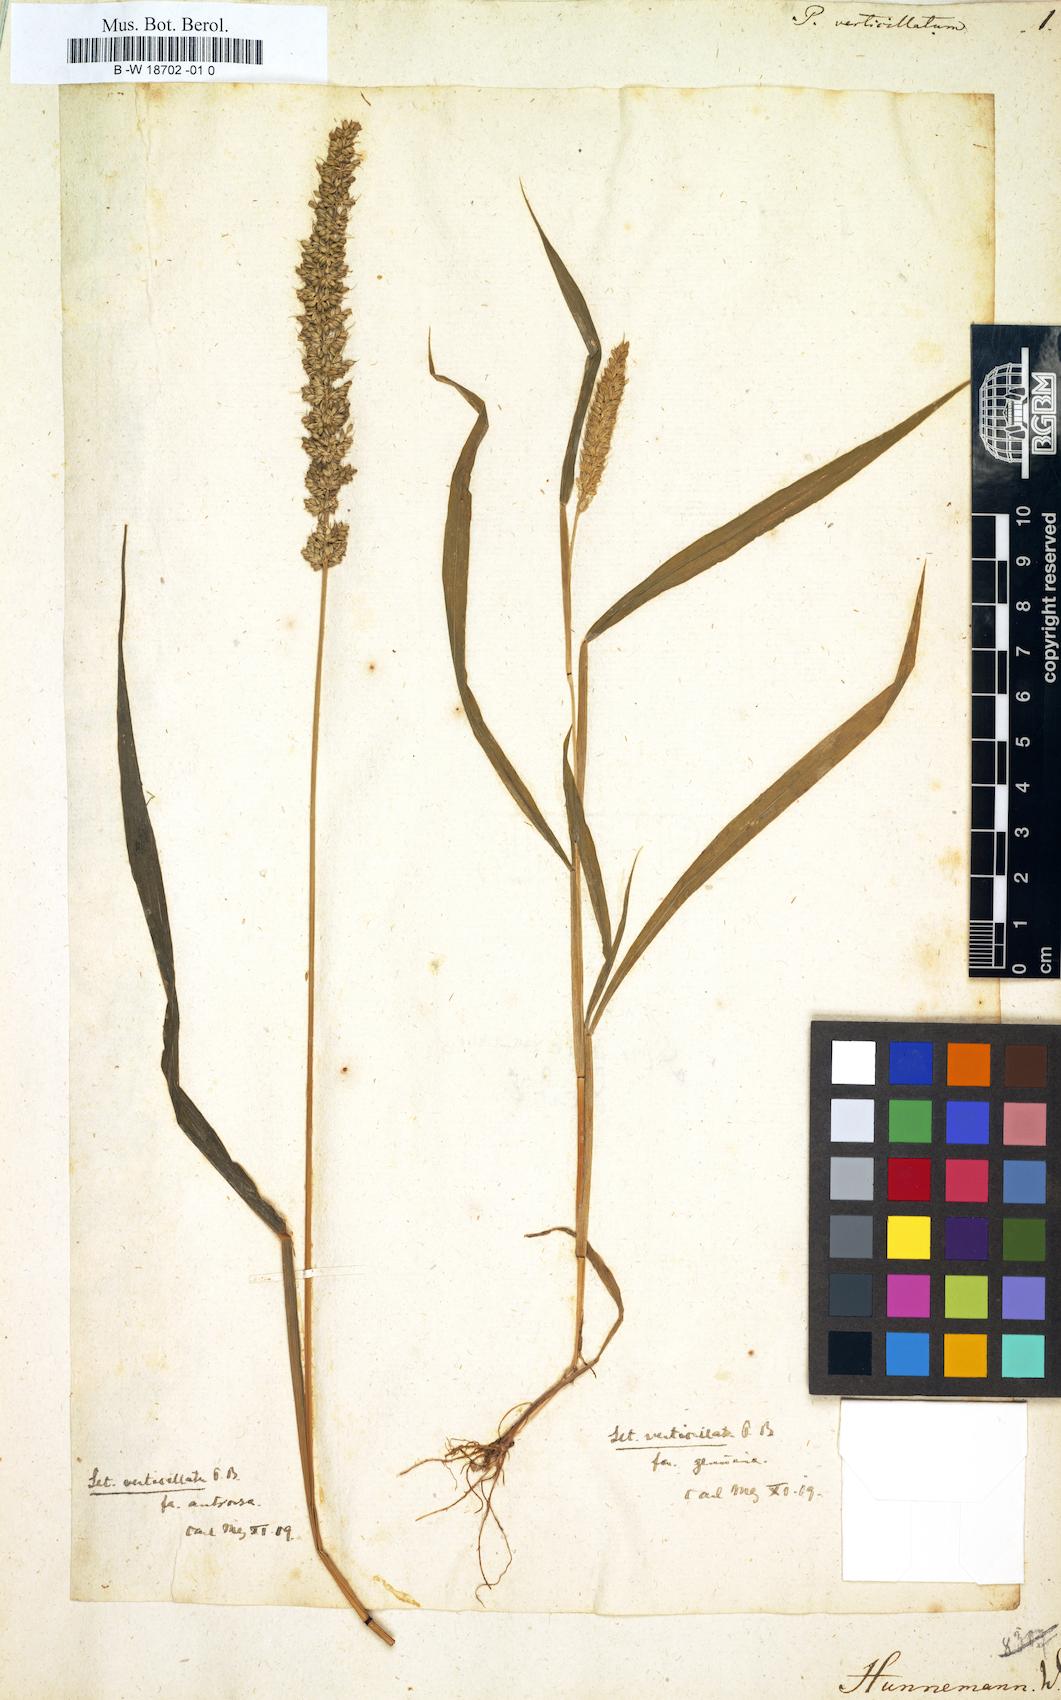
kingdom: Plantae
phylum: Tracheophyta
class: Liliopsida
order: Poales
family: Poaceae
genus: Panicum
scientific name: Panicum verticillatum
